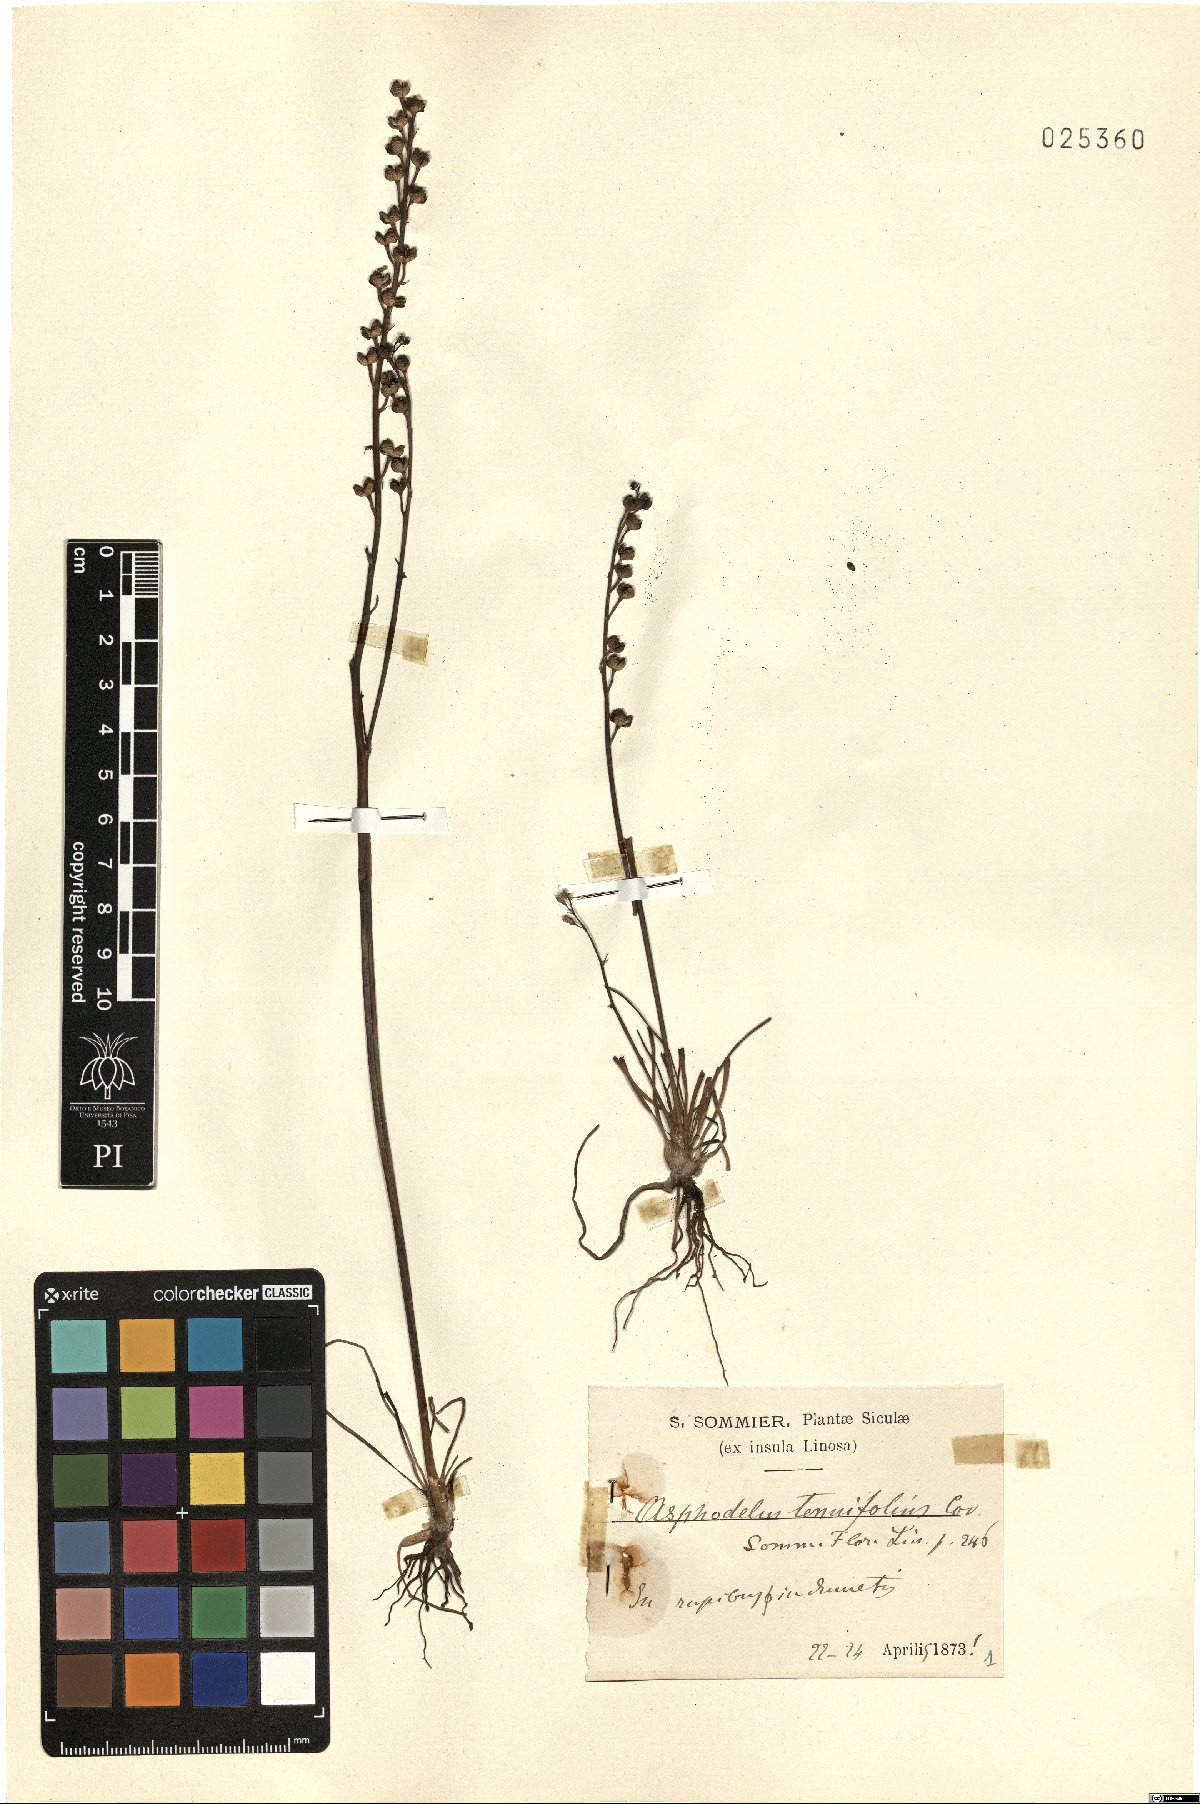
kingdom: Plantae
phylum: Tracheophyta
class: Liliopsida
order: Asparagales
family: Asphodelaceae
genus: Asphodelus
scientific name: Asphodelus tenuifolius
